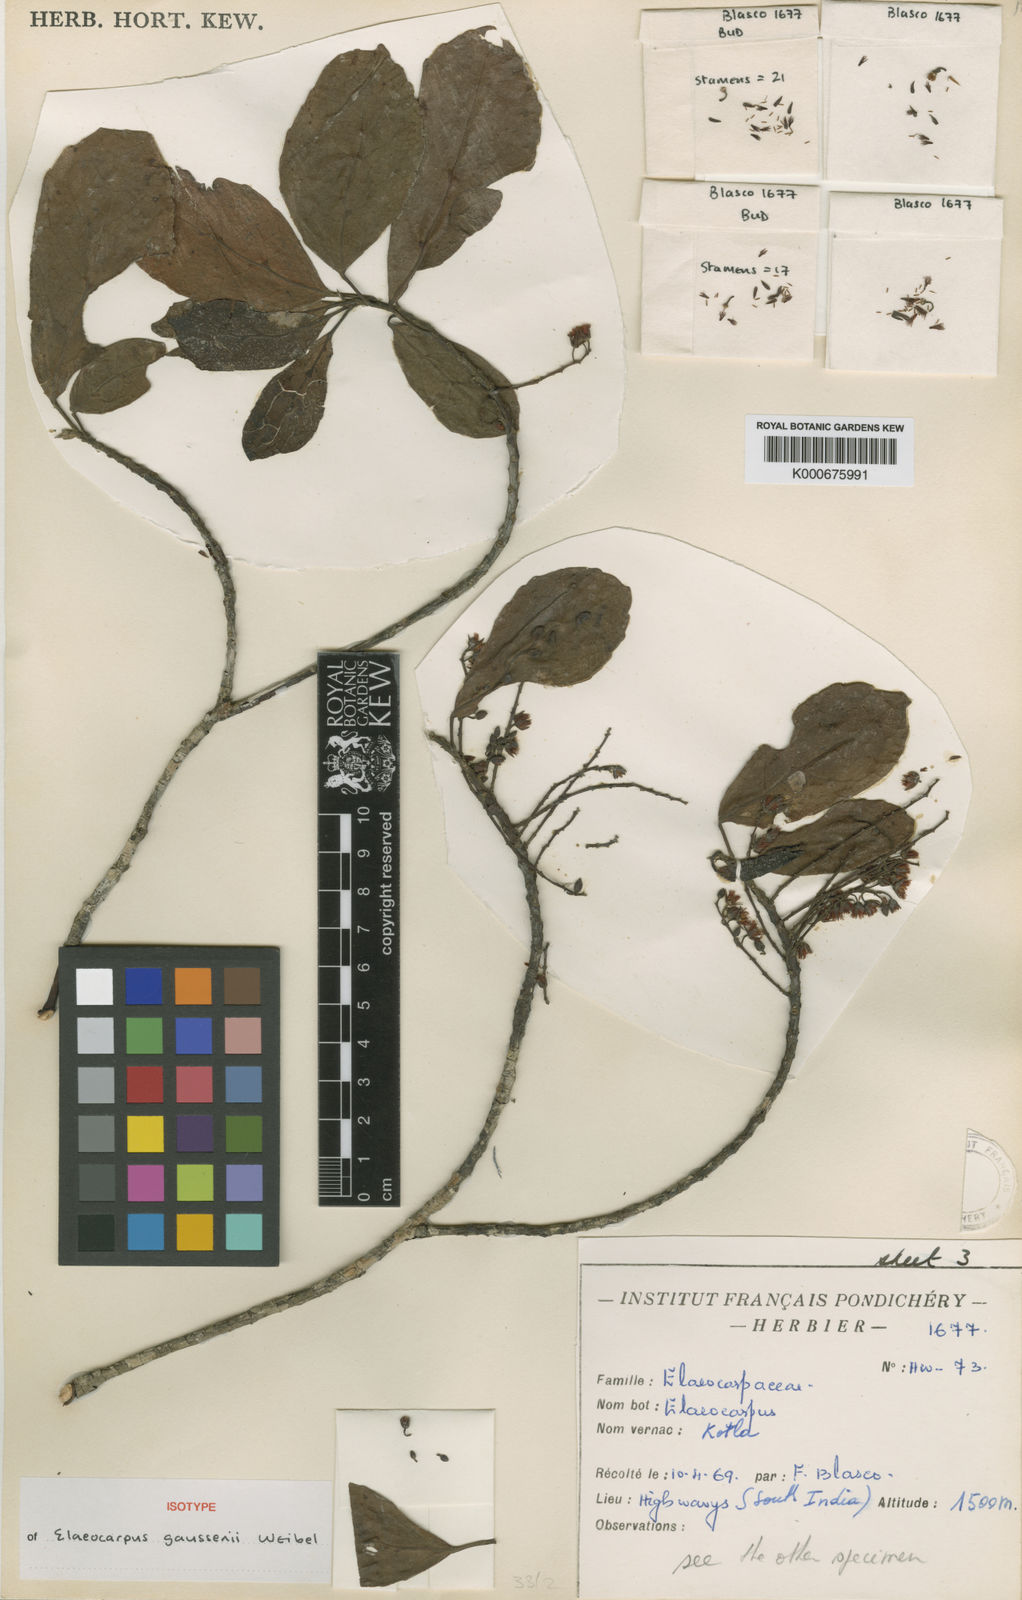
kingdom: Plantae
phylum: Tracheophyta
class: Magnoliopsida
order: Oxalidales
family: Elaeocarpaceae
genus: Elaeocarpus
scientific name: Elaeocarpus gaussenii
